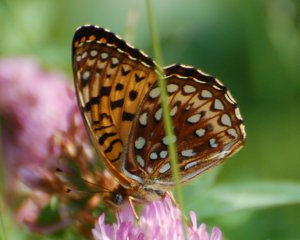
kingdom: Animalia
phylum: Arthropoda
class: Insecta
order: Lepidoptera
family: Nymphalidae
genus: Speyeria
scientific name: Speyeria atlantis
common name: Atlantis Fritillary
